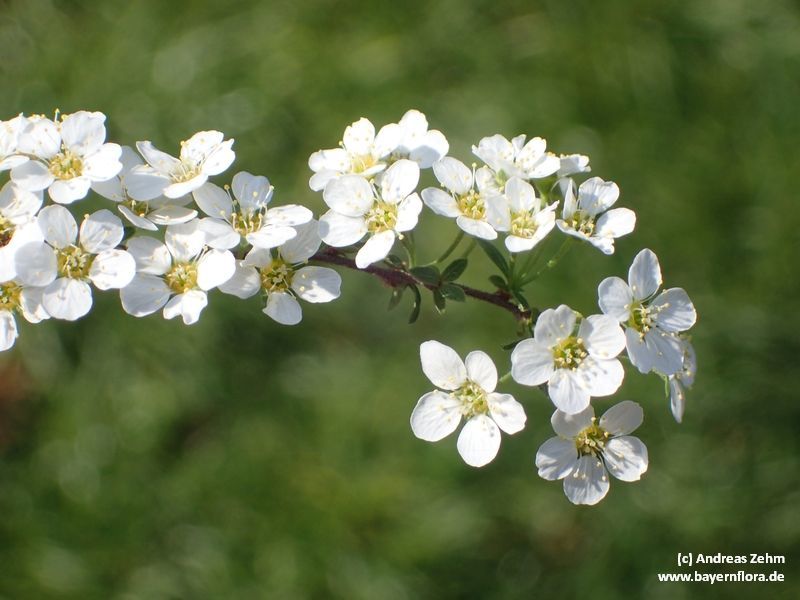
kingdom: Plantae
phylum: Tracheophyta
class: Magnoliopsida
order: Rosales
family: Rosaceae
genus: Spiraea
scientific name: Spiraea chamaedryfolia
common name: Elm-leaved spiraea
